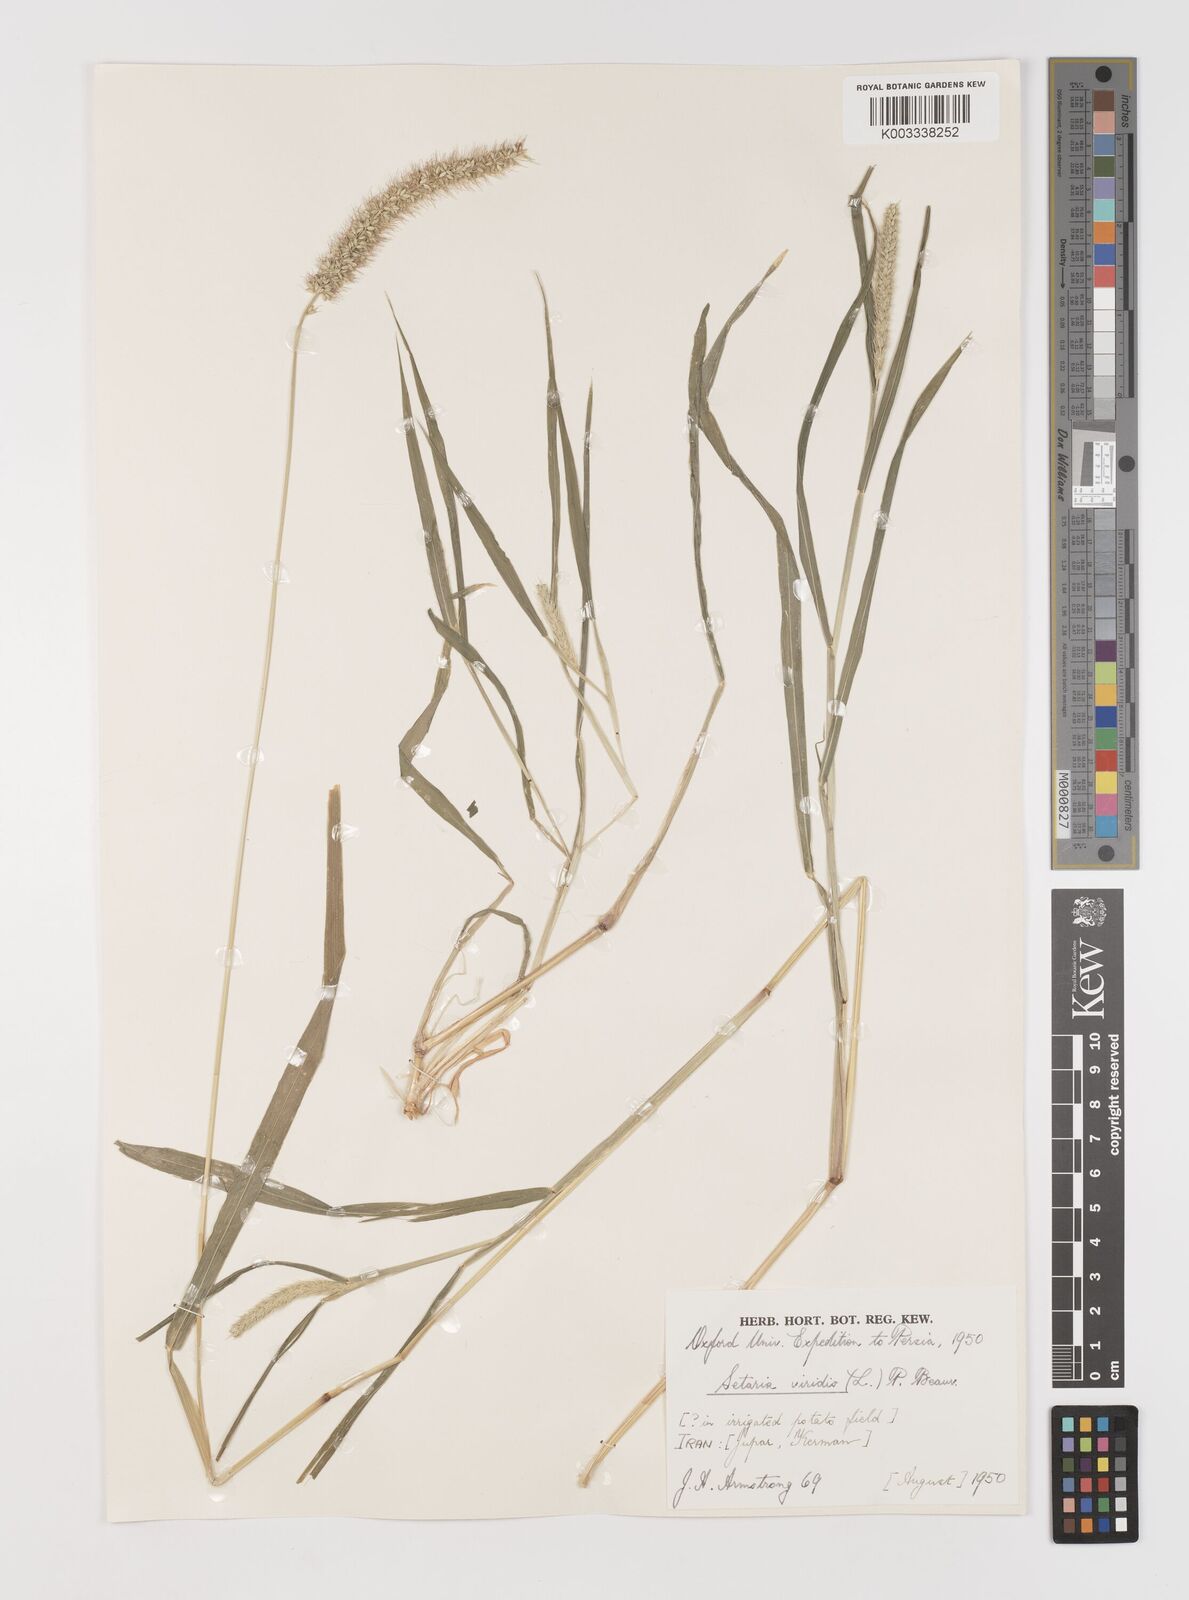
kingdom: Plantae
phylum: Tracheophyta
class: Liliopsida
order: Poales
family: Poaceae
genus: Setaria
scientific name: Setaria verticillata
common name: Hooked bristlegrass
